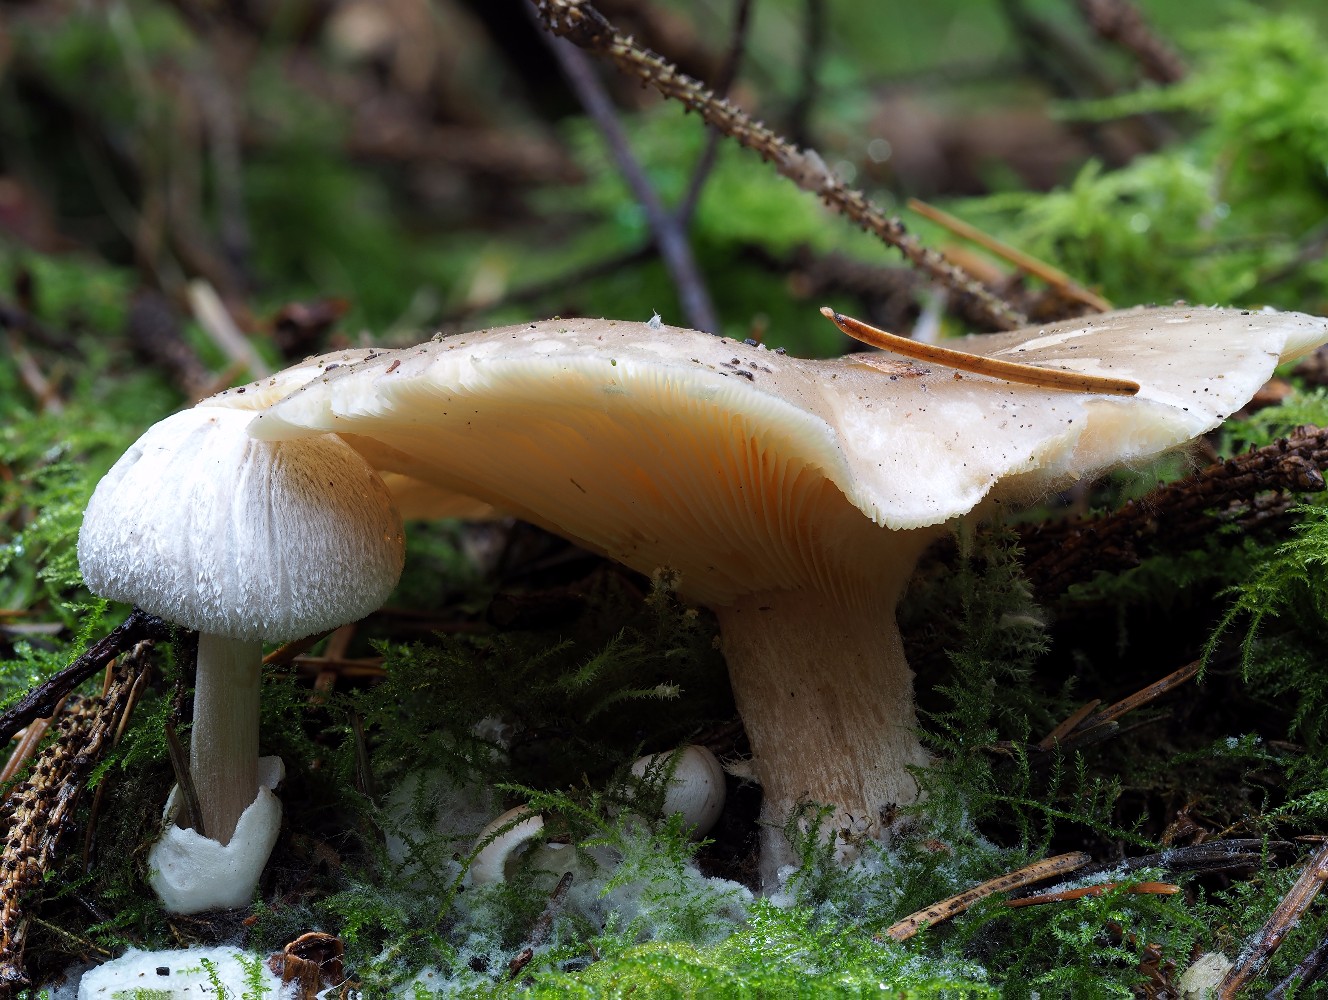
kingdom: Fungi
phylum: Basidiomycota
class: Agaricomycetes
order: Agaricales
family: Pluteaceae
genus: Volvariella
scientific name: Volvariella surrecta
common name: snyltende posesvamp
